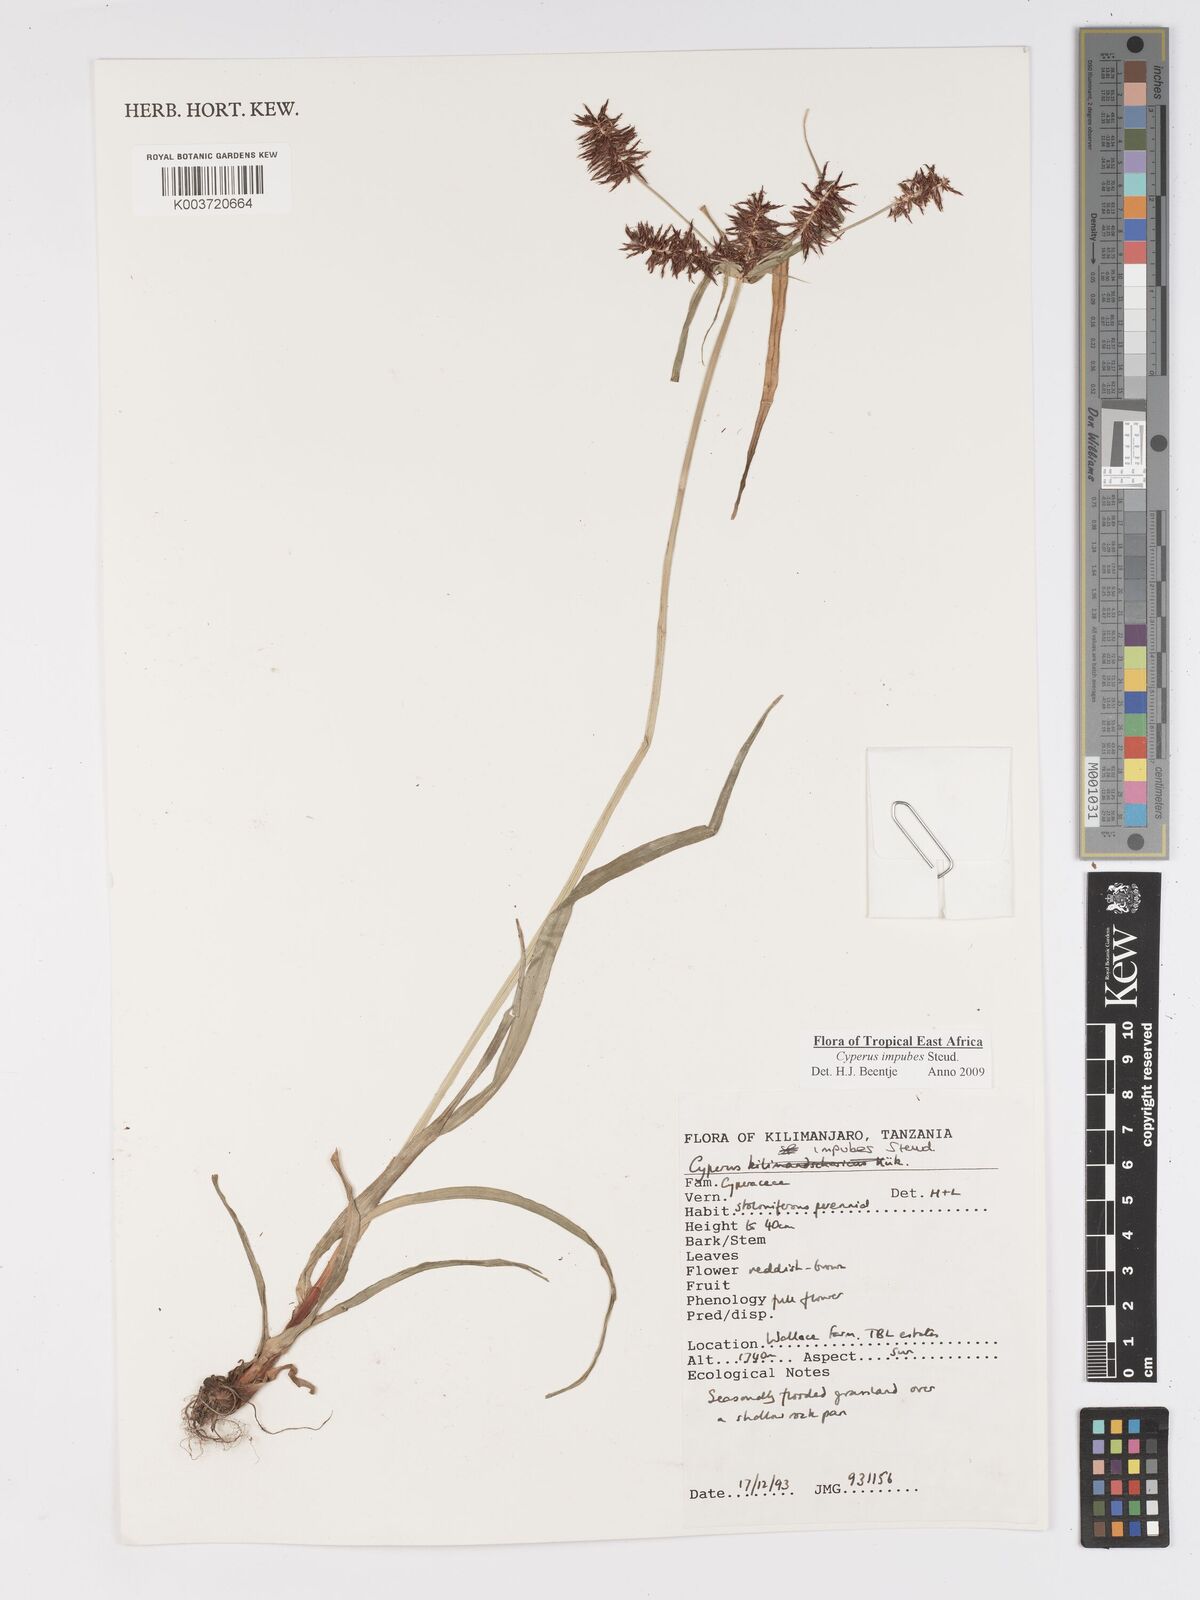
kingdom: Plantae
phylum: Tracheophyta
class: Liliopsida
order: Poales
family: Cyperaceae
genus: Cyperus
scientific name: Cyperus impubes
